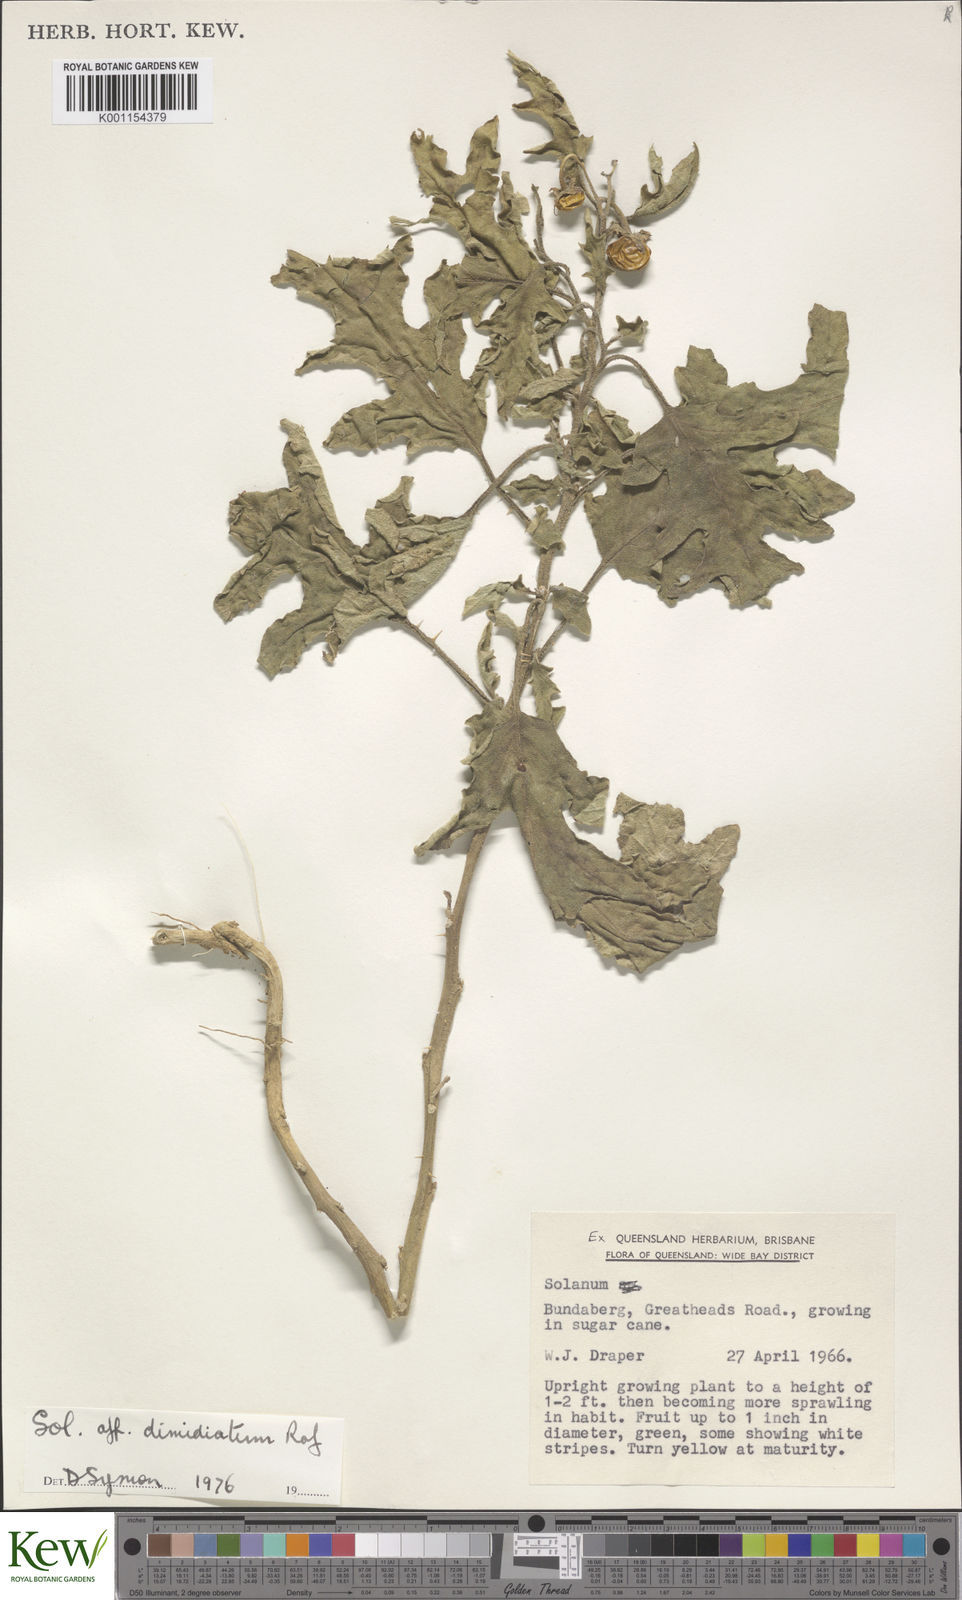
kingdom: Plantae
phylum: Tracheophyta
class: Magnoliopsida
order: Solanales
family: Solanaceae
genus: Solanum
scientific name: Solanum dimidiatum
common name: Carolina horse-nettle
